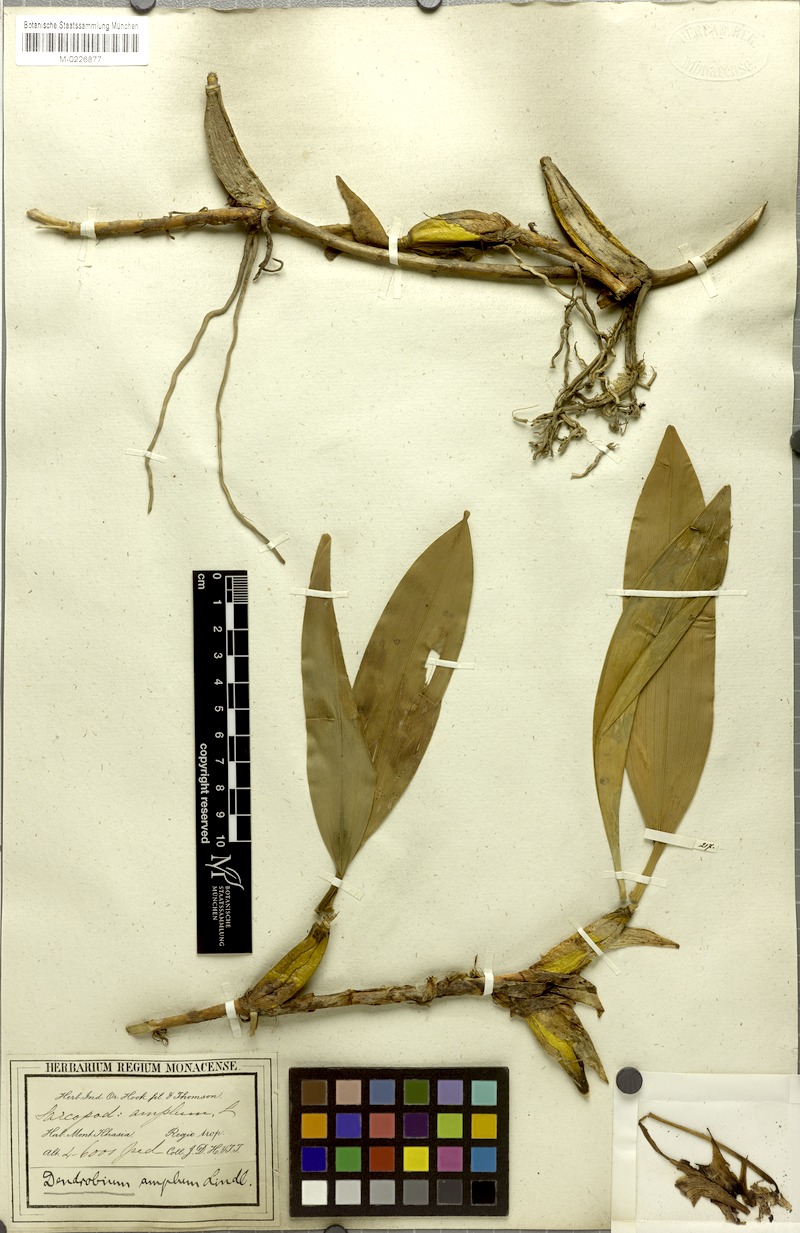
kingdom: Plantae
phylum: Tracheophyta
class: Liliopsida
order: Asparagales
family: Orchidaceae
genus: Dendrobium
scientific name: Dendrobium amplum
